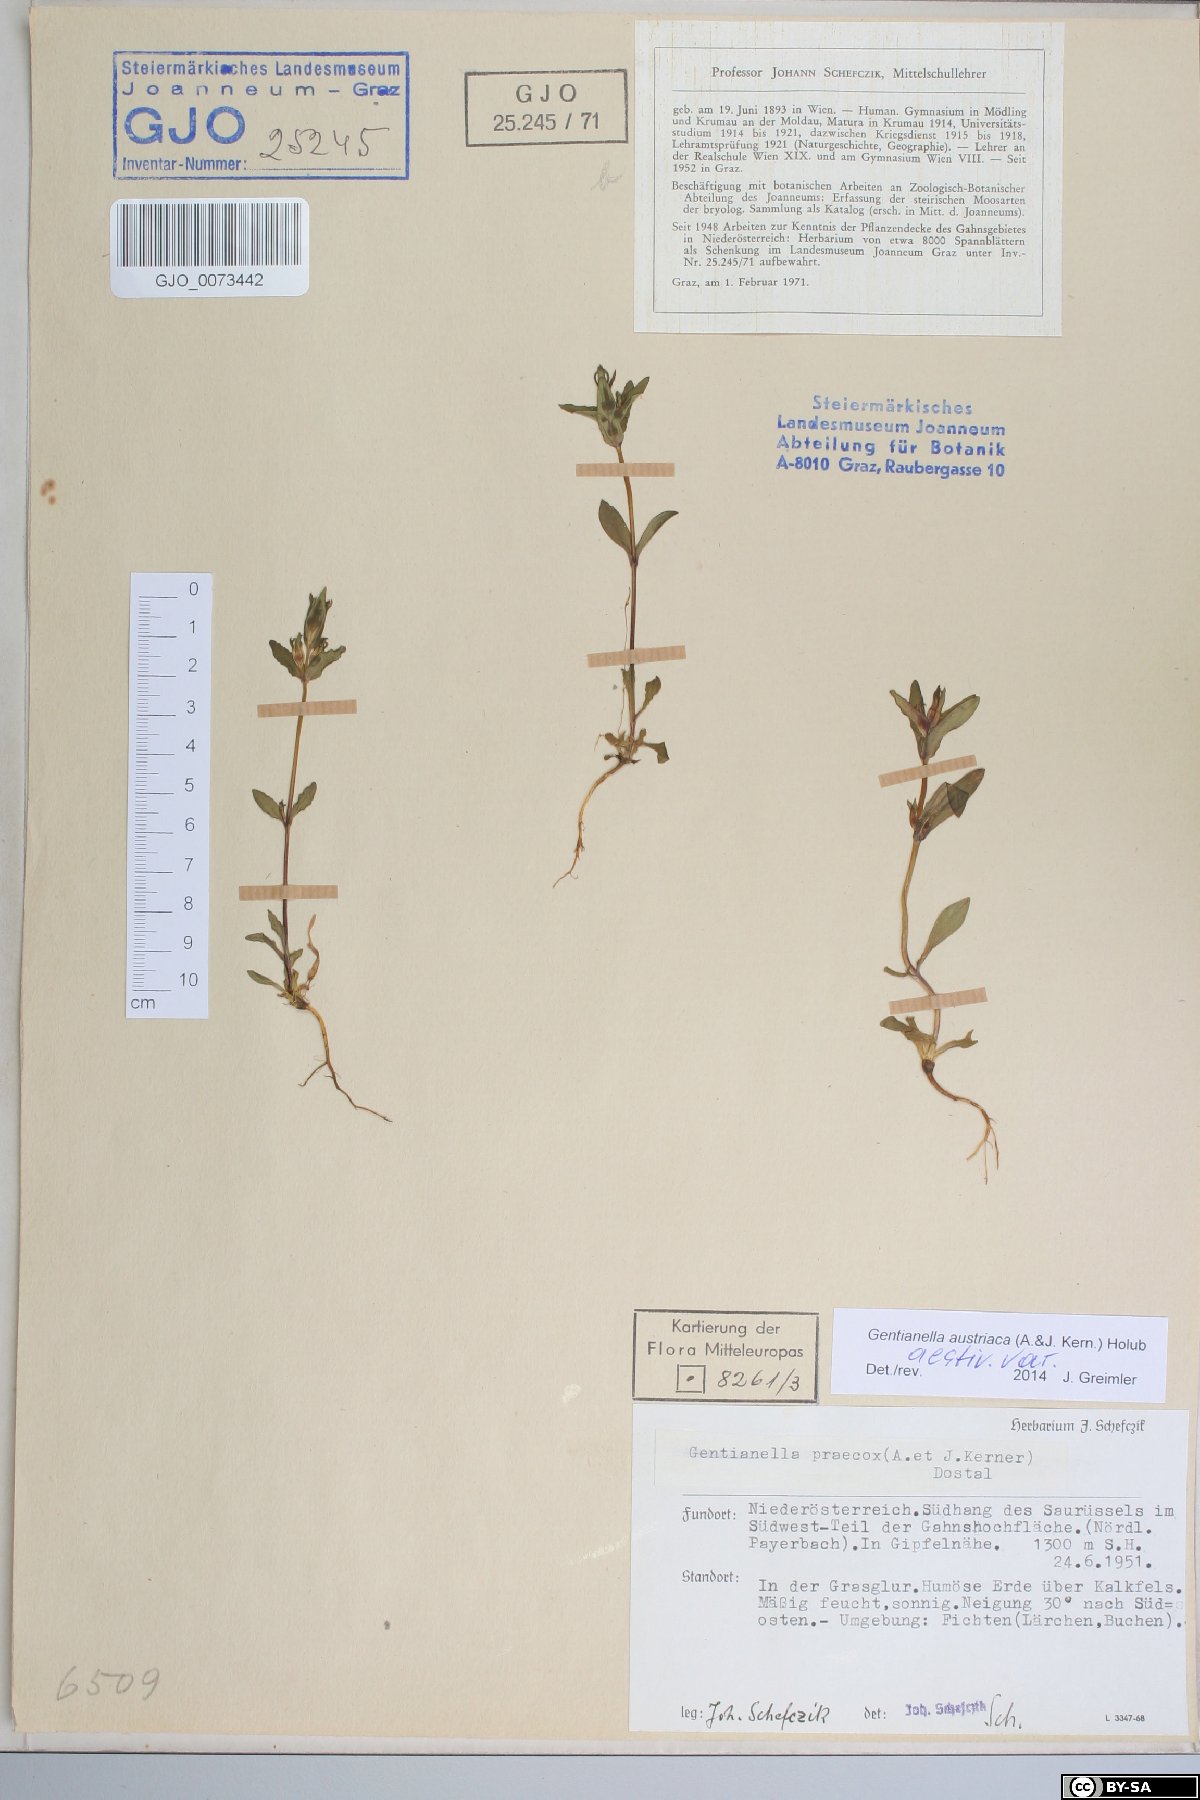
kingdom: Plantae
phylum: Tracheophyta
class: Magnoliopsida
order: Gentianales
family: Gentianaceae
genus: Gentianella
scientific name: Gentianella austriaca
